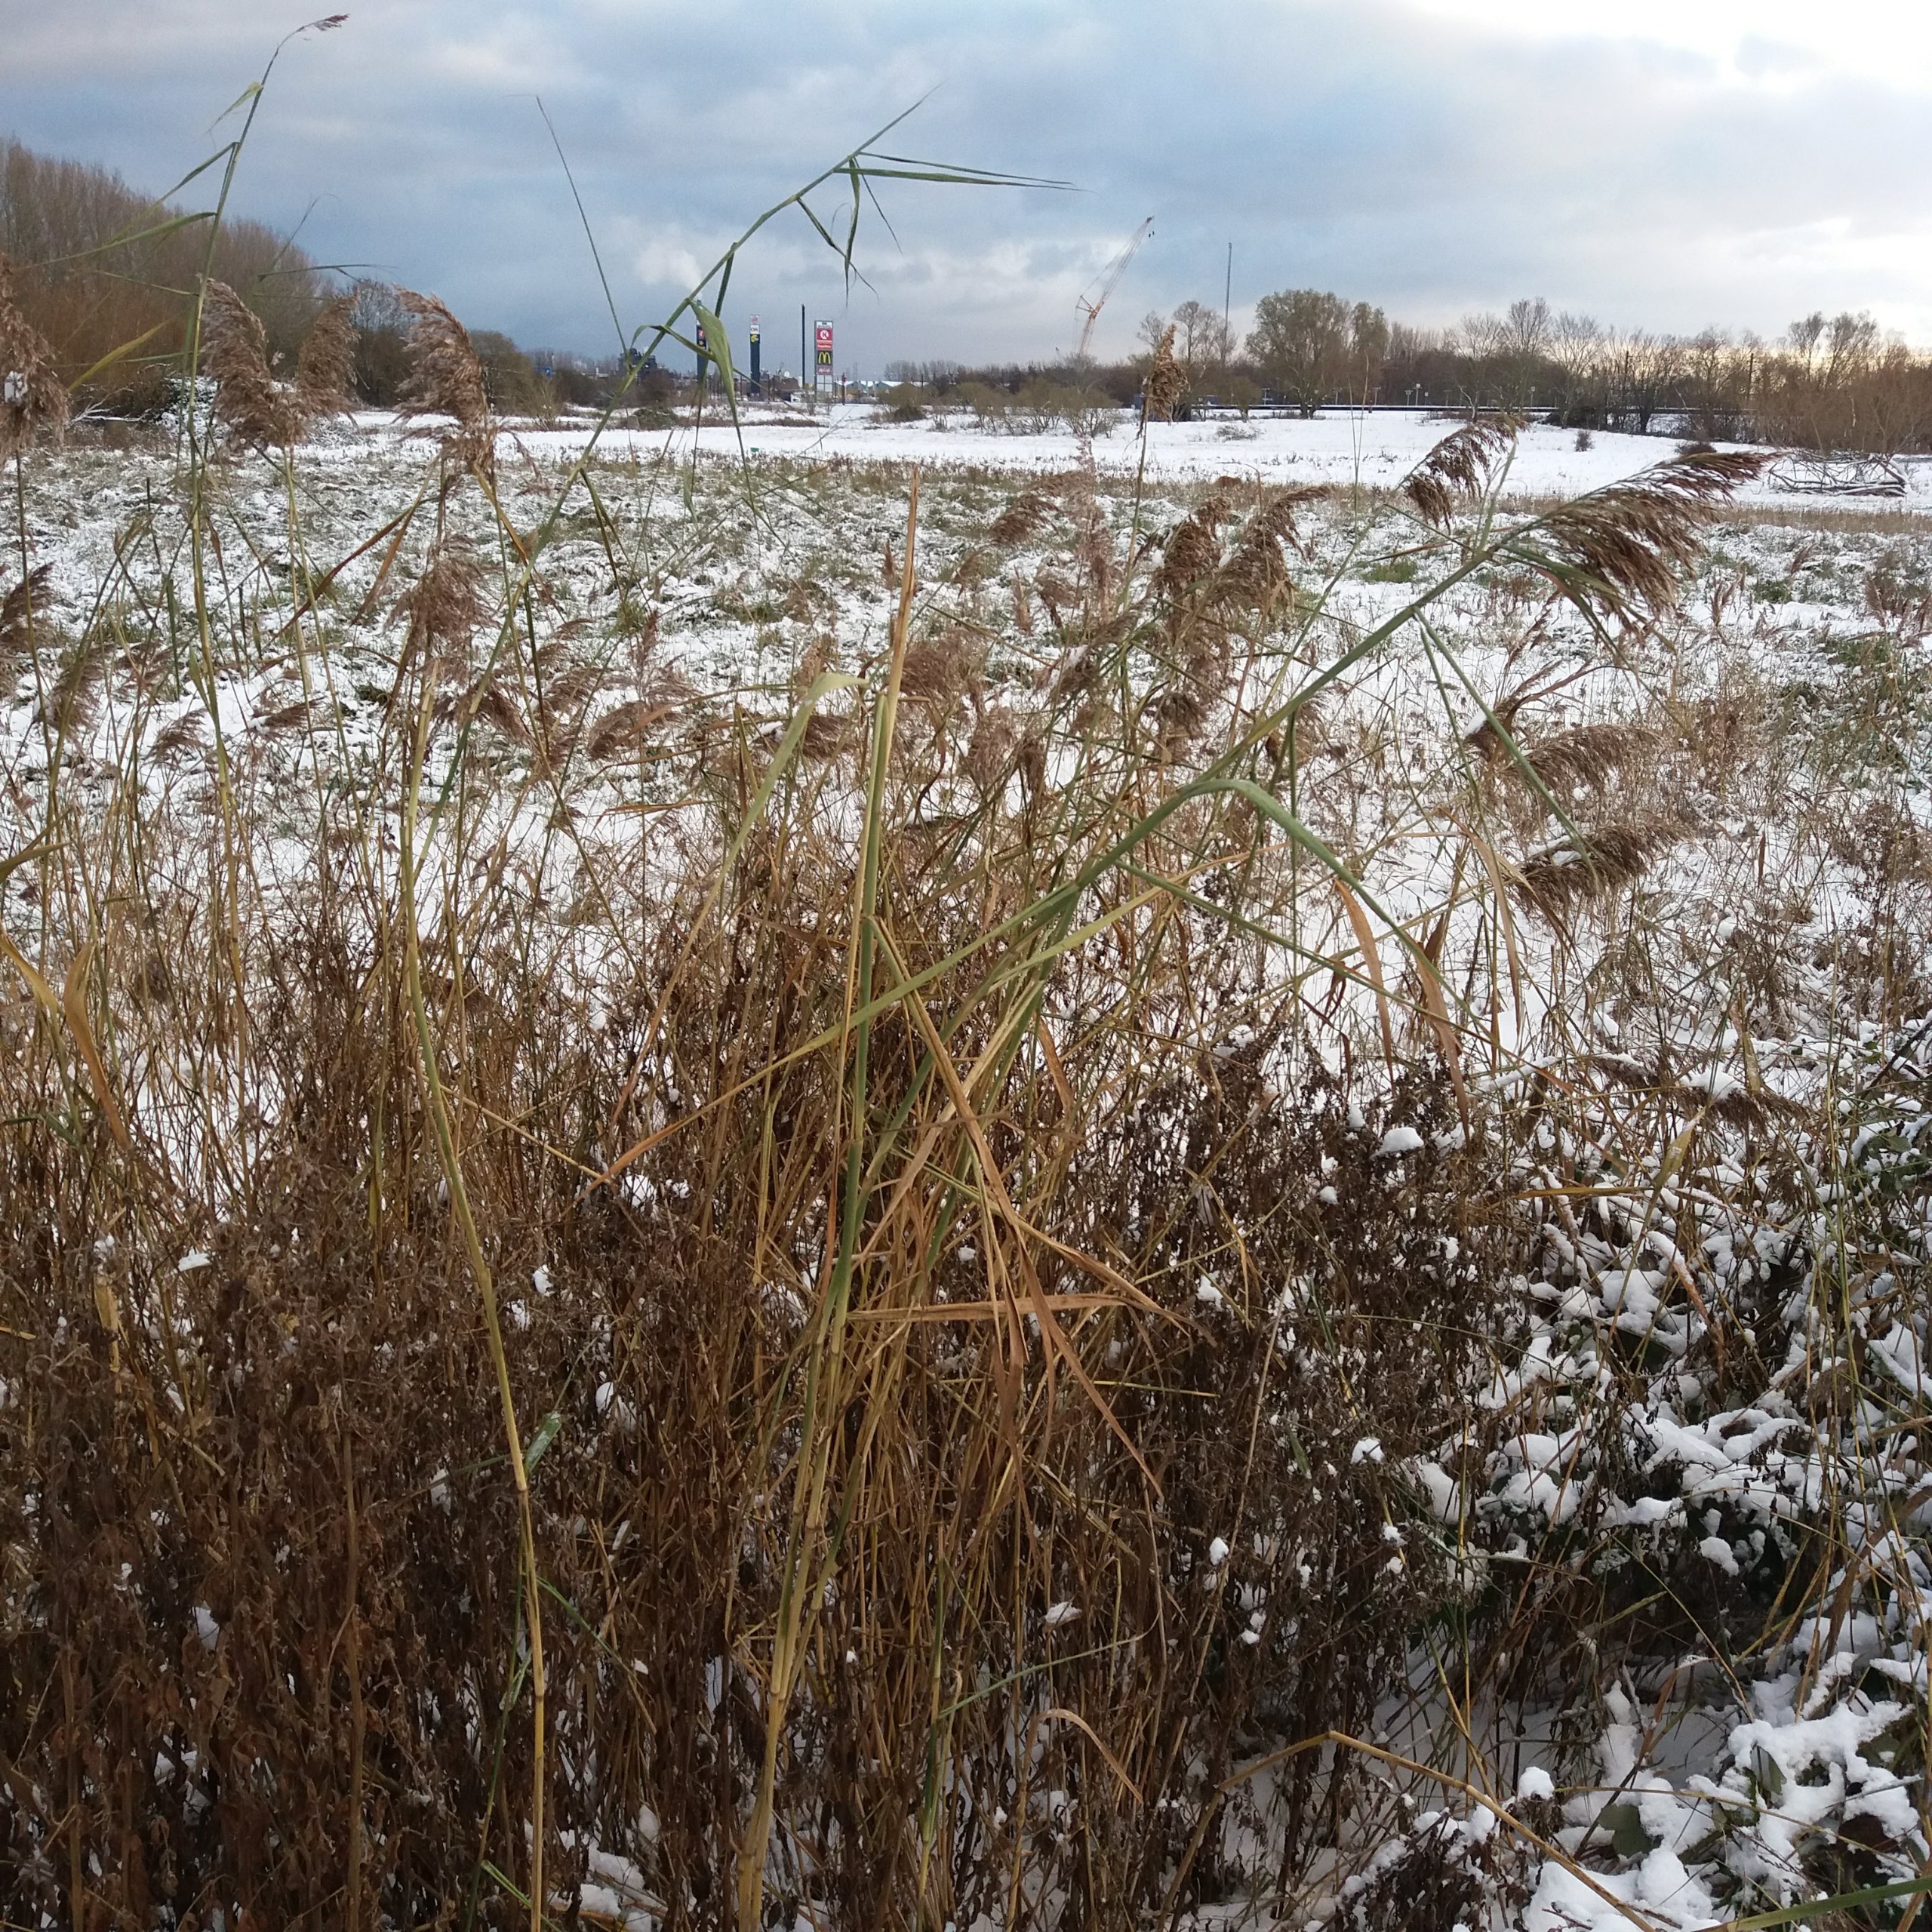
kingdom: Plantae
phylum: Tracheophyta
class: Liliopsida
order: Poales
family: Poaceae
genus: Phragmites
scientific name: Phragmites australis
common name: Tagrør
